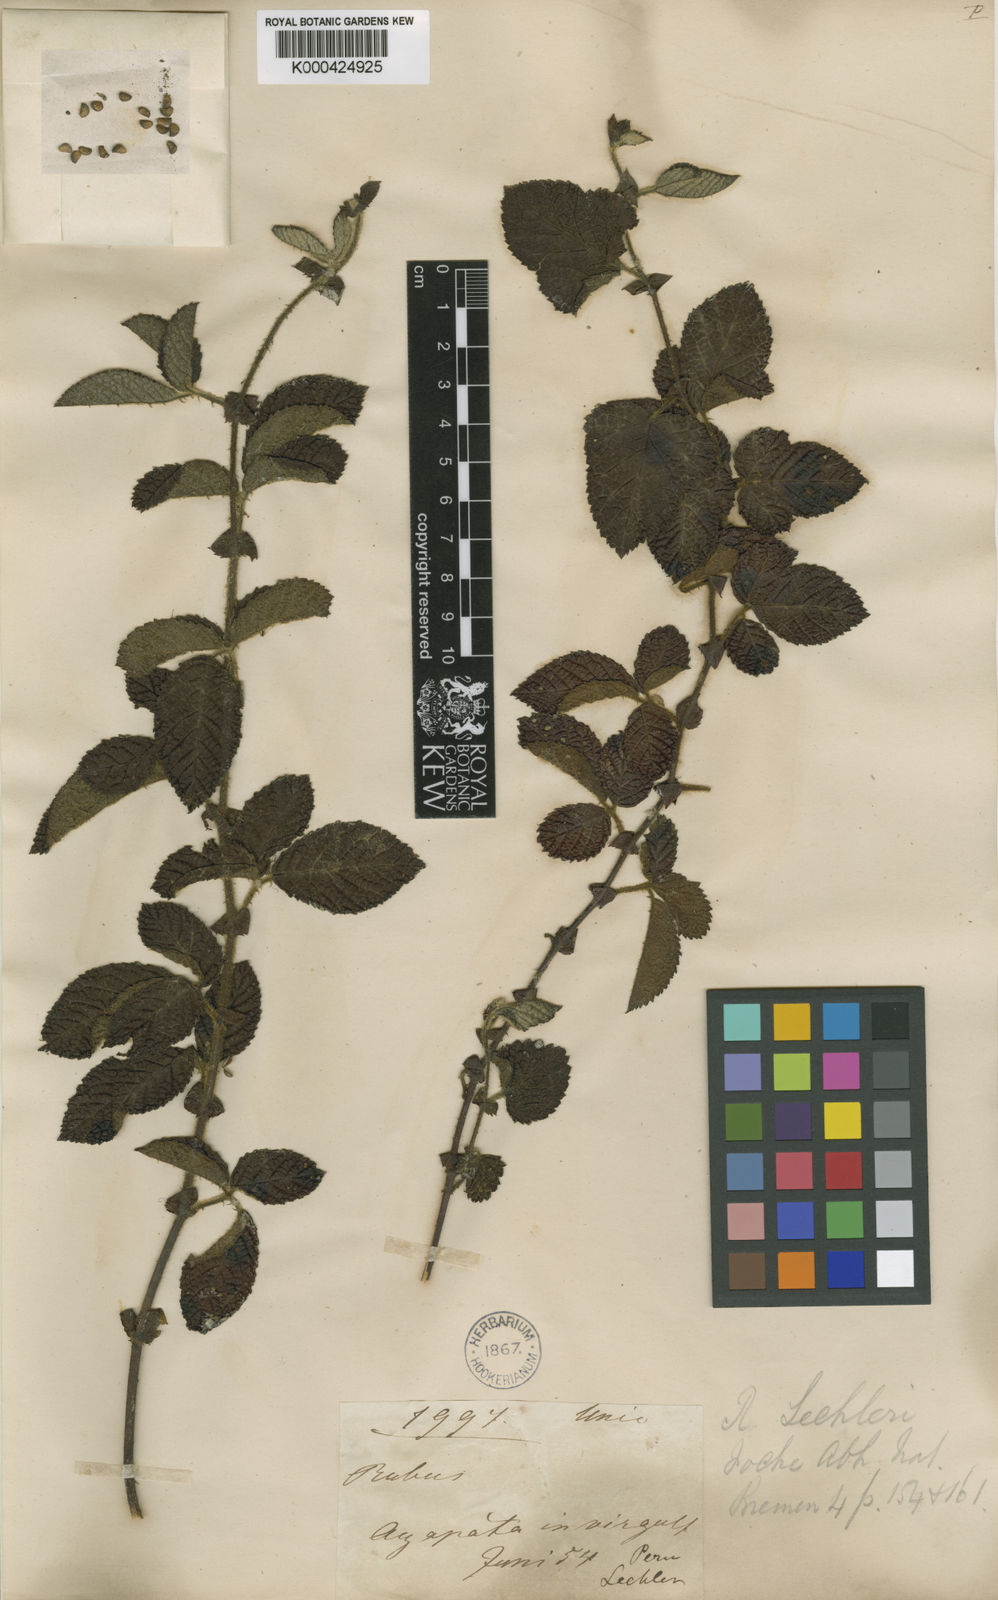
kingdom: Plantae
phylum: Tracheophyta
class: Magnoliopsida
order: Rosales
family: Rosaceae
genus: Rubus
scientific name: Rubus lechleri
